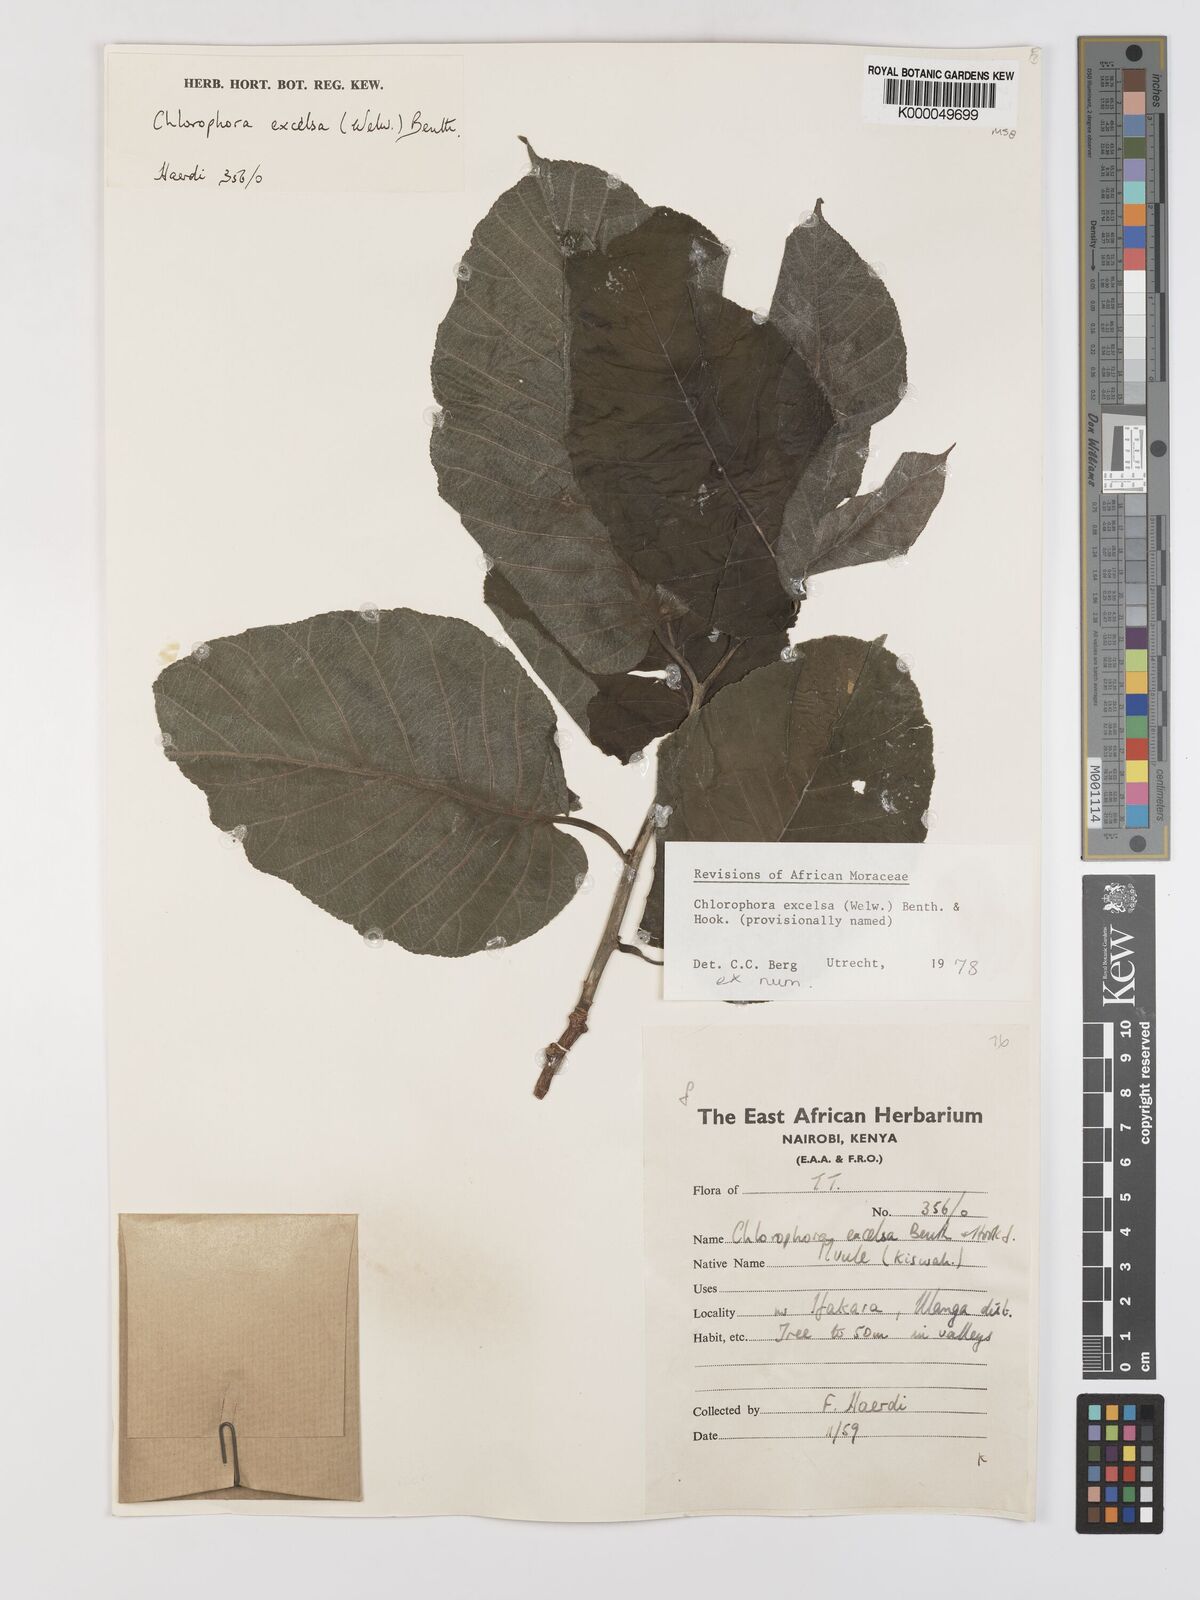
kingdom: Plantae
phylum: Tracheophyta
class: Magnoliopsida
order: Rosales
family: Moraceae
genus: Milicia
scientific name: Milicia excelsa
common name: African teak
